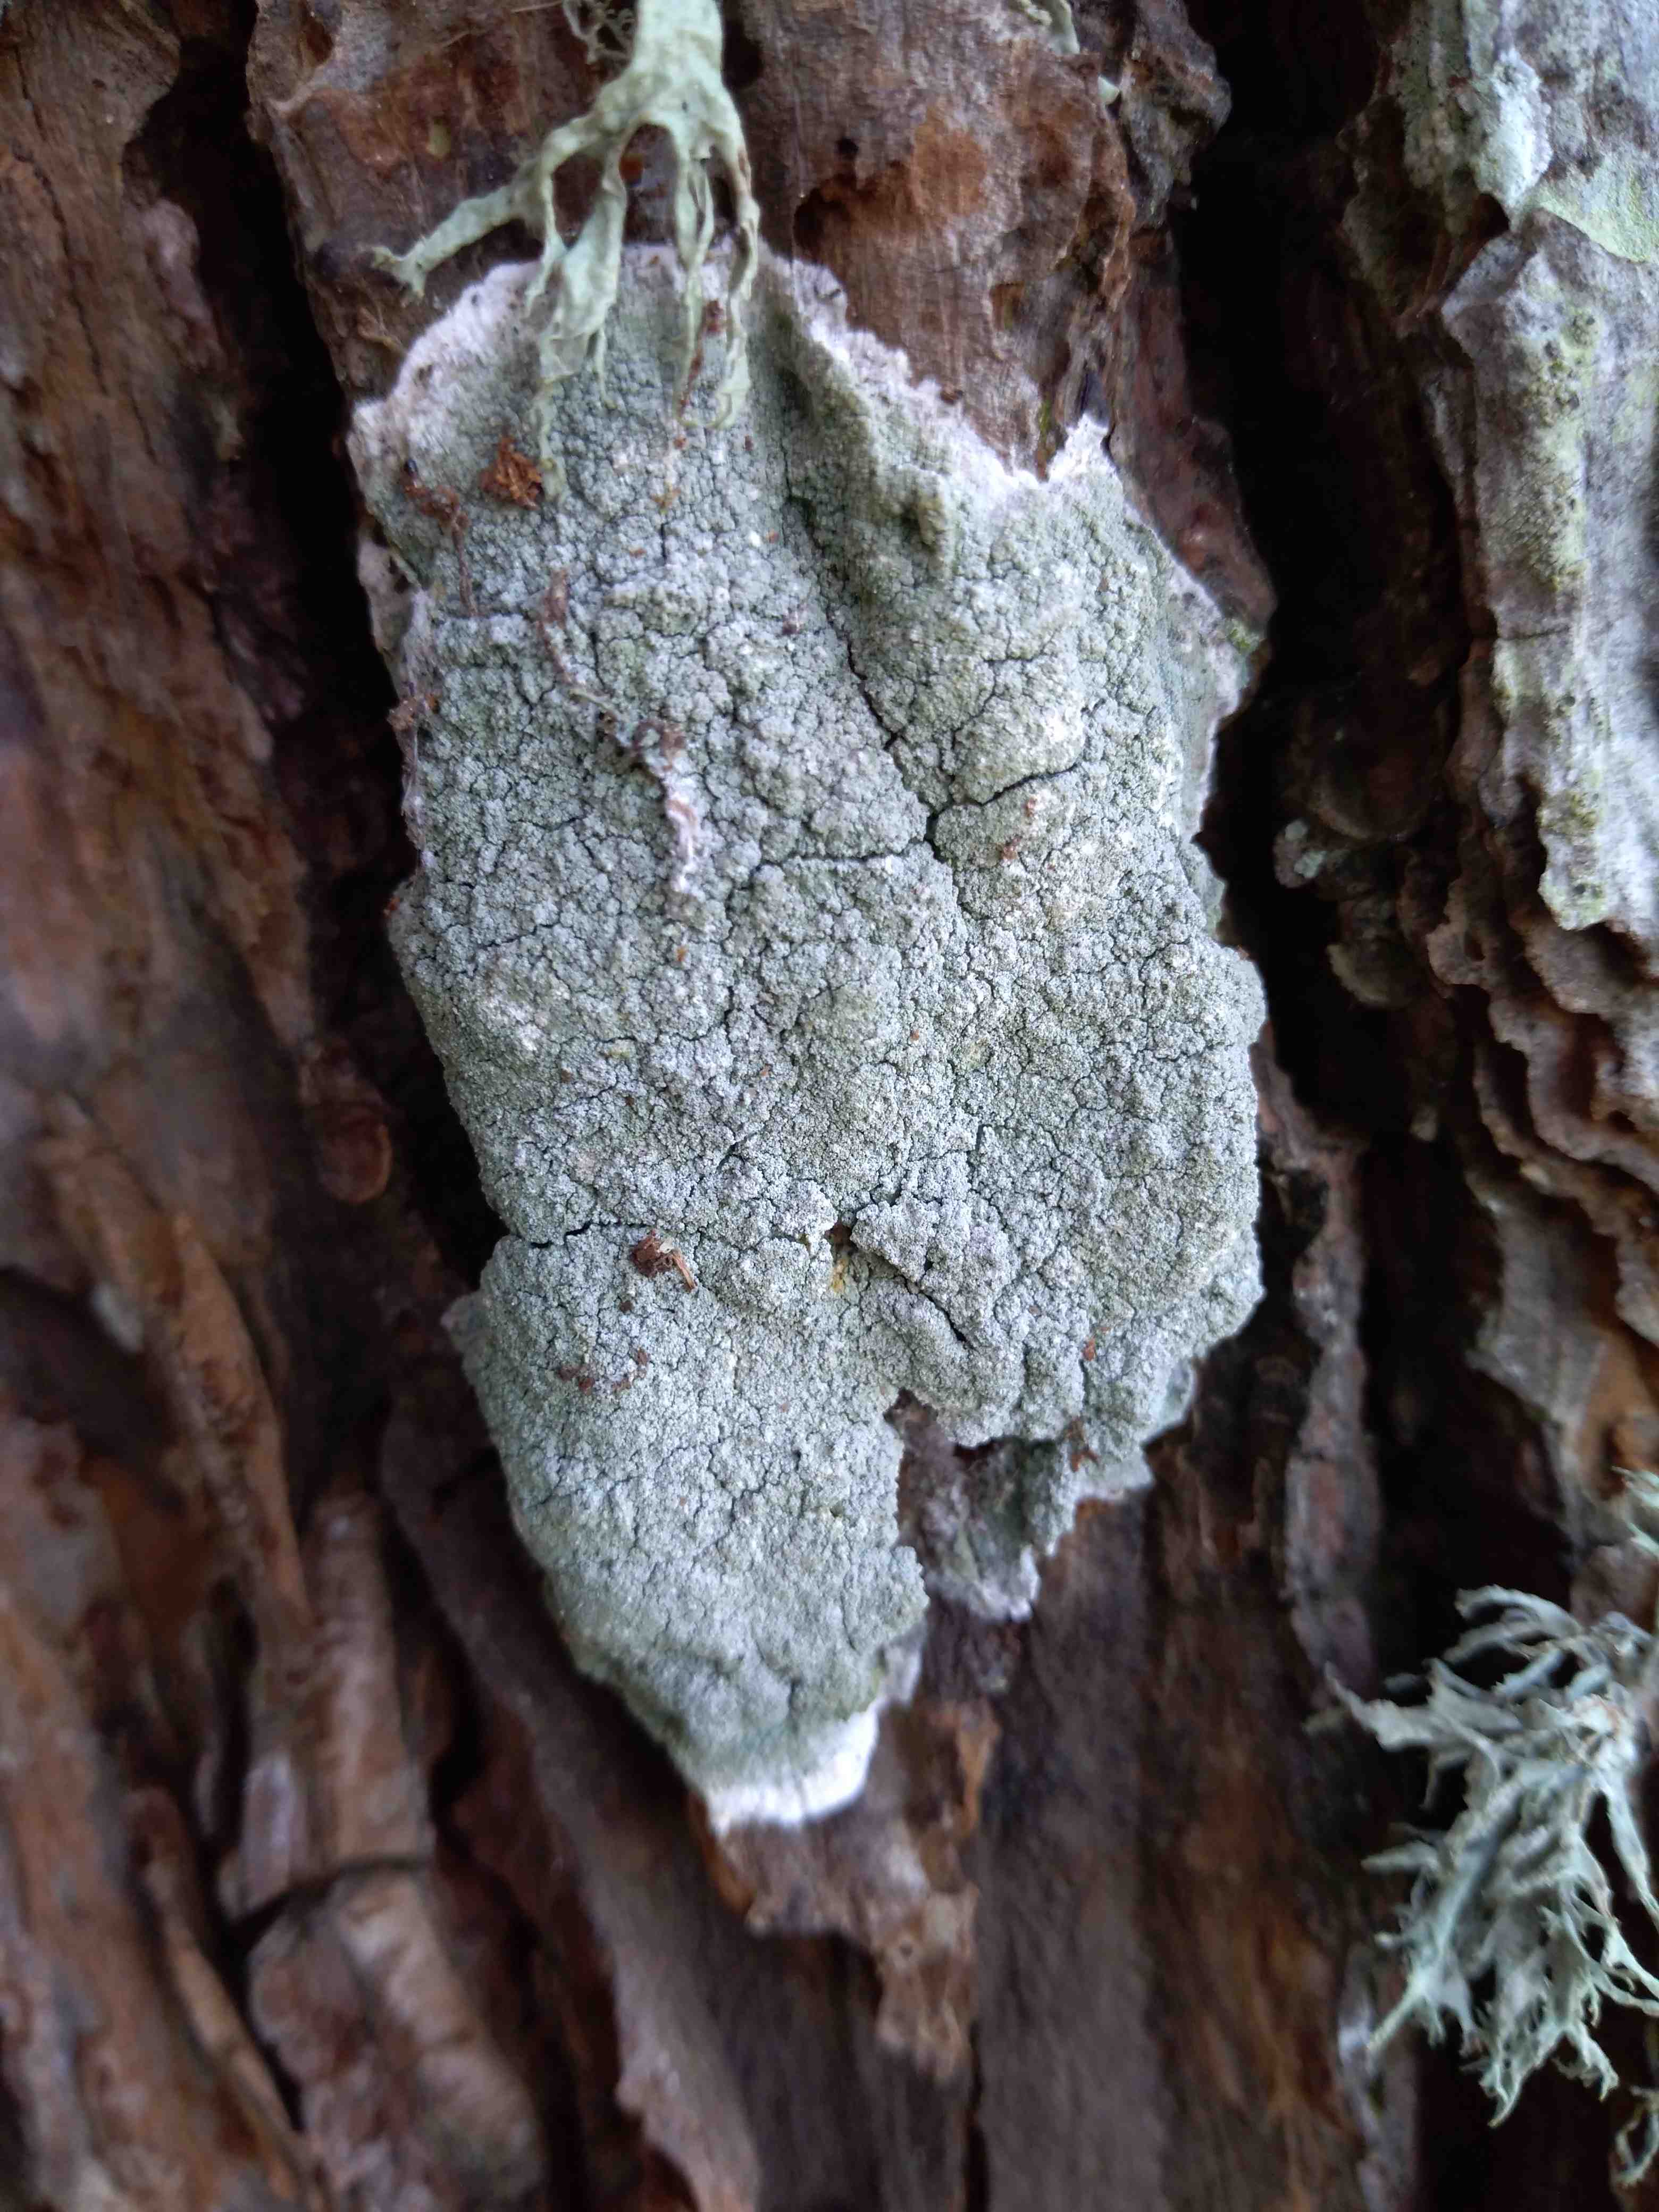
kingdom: Fungi
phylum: Ascomycota
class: Lecanoromycetes
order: Lecanorales
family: Haematommataceae
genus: Haematomma
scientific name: Haematomma ochroleucum
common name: gul trådkantlav
